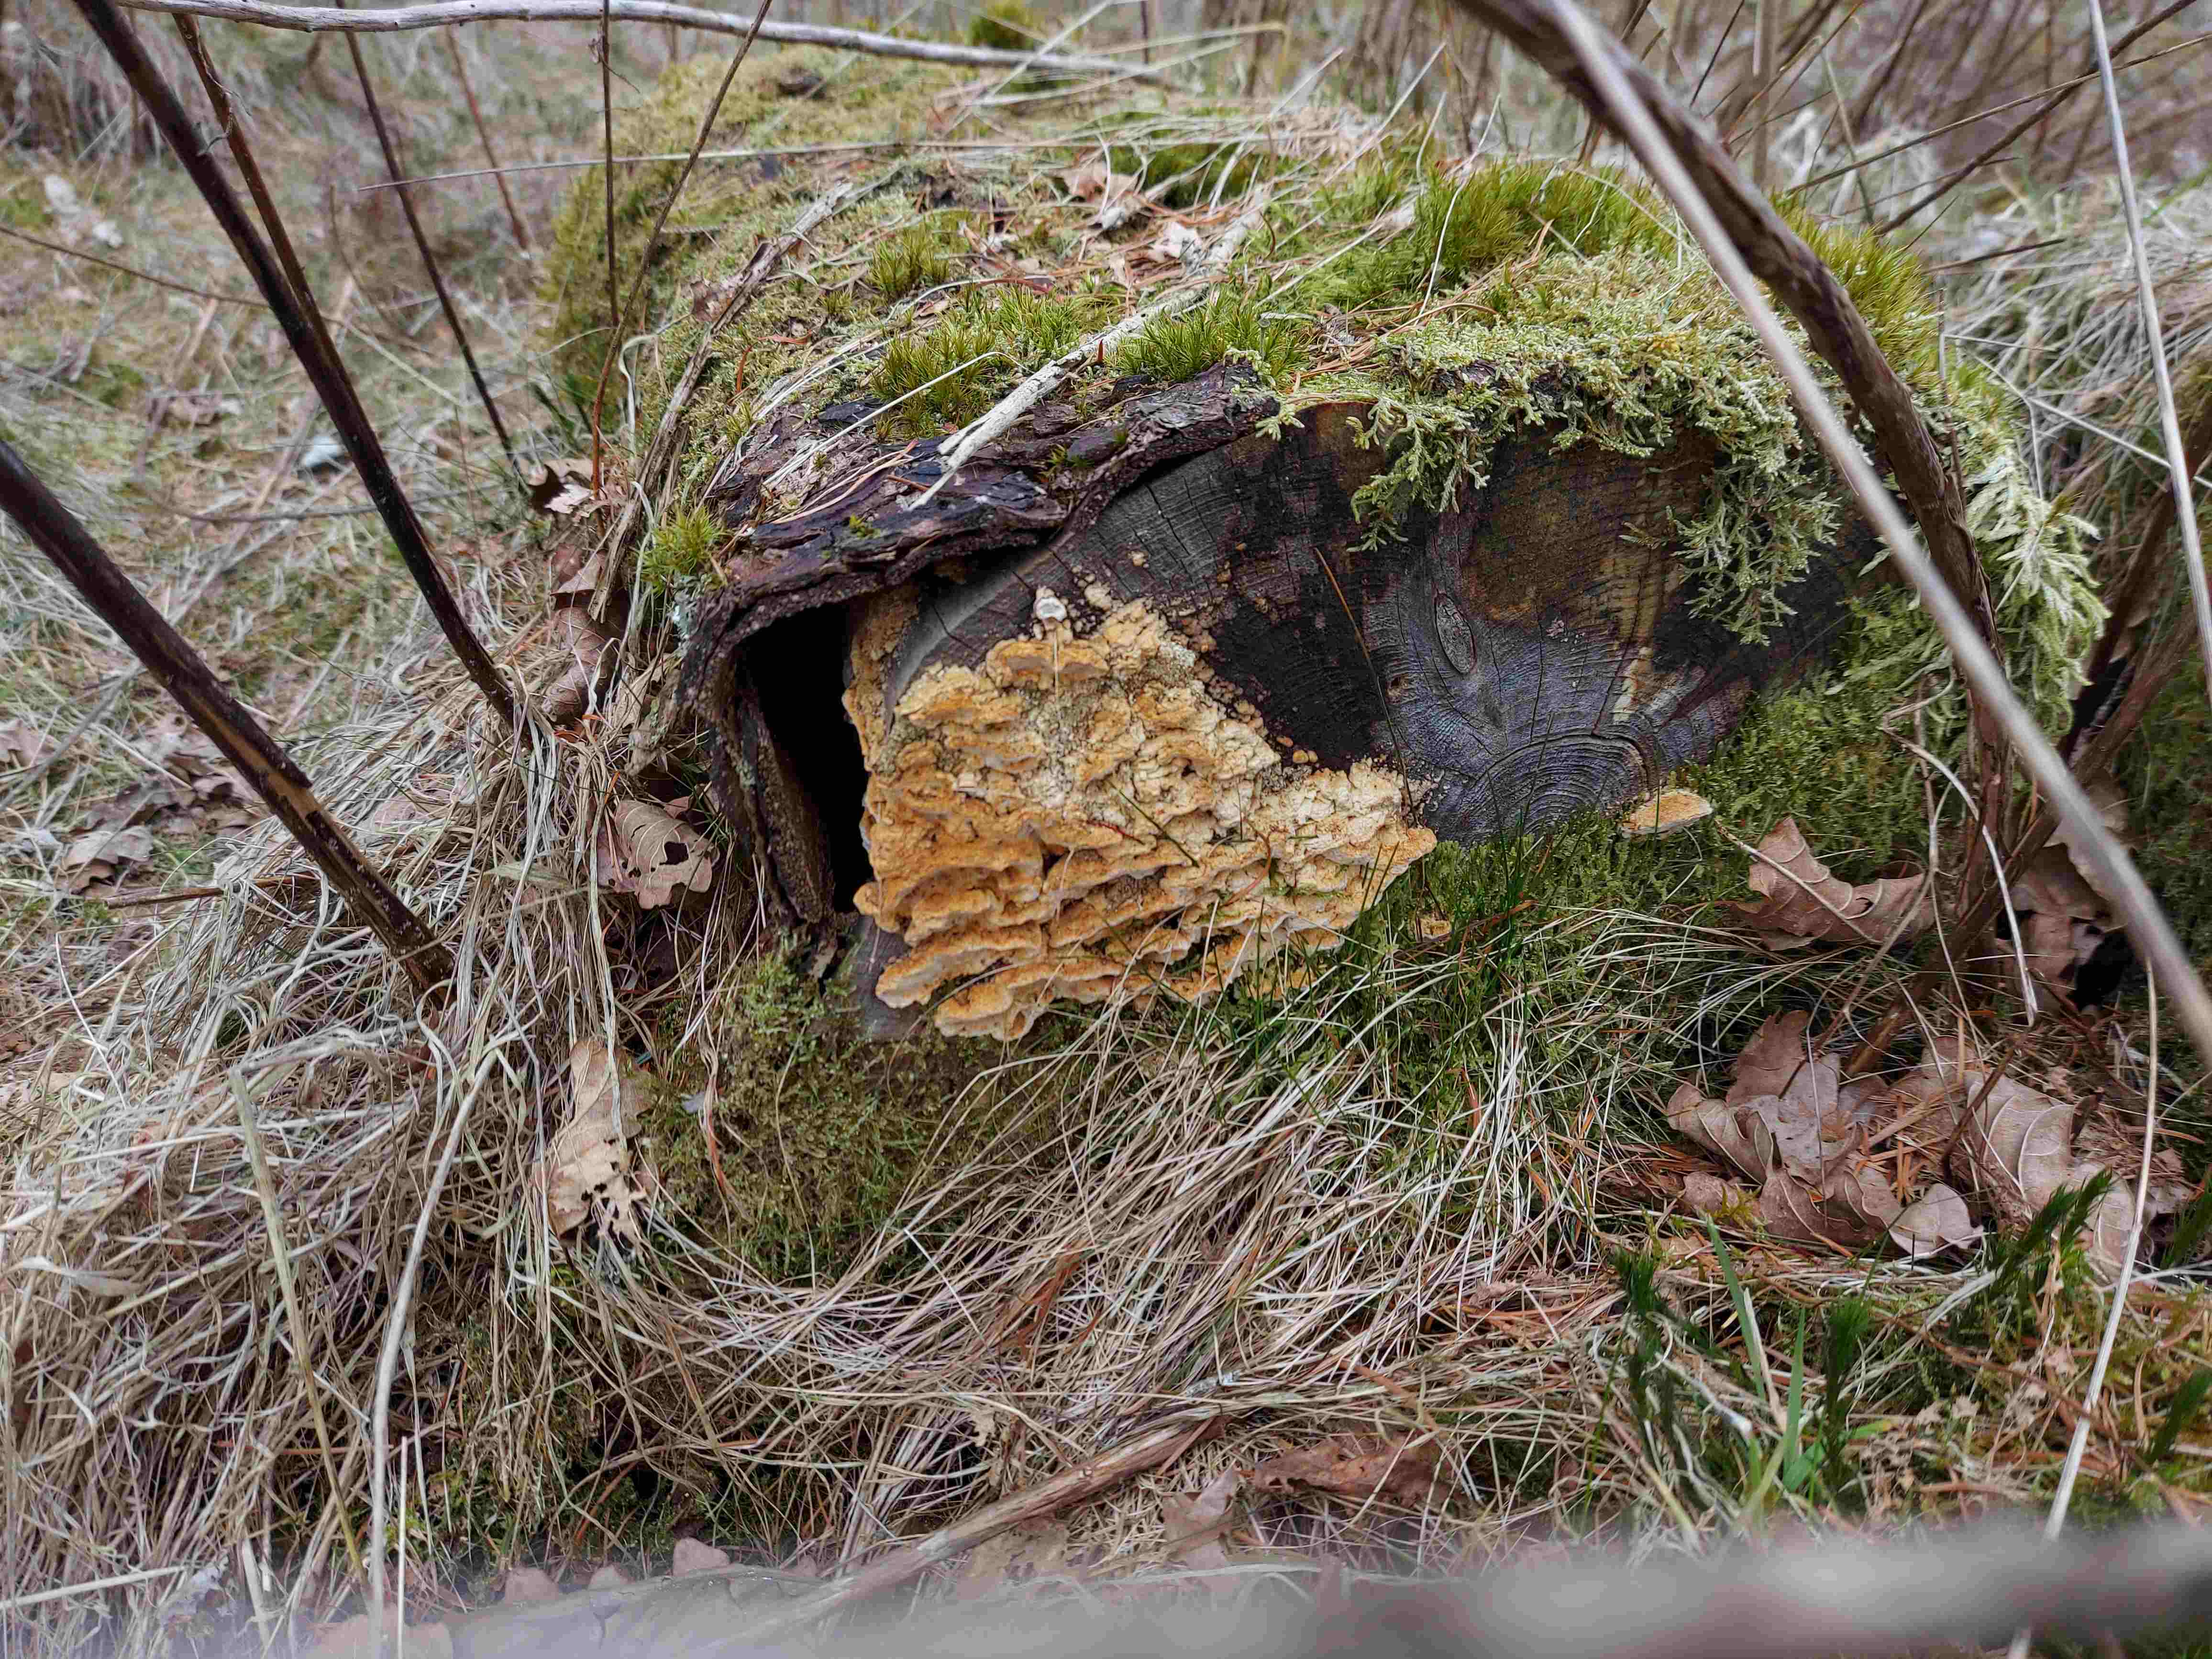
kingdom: Fungi
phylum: Basidiomycota
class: Agaricomycetes
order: Polyporales
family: Fomitopsidaceae
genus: Neoantrodia
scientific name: Neoantrodia serialis
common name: række-sejporesvamp
